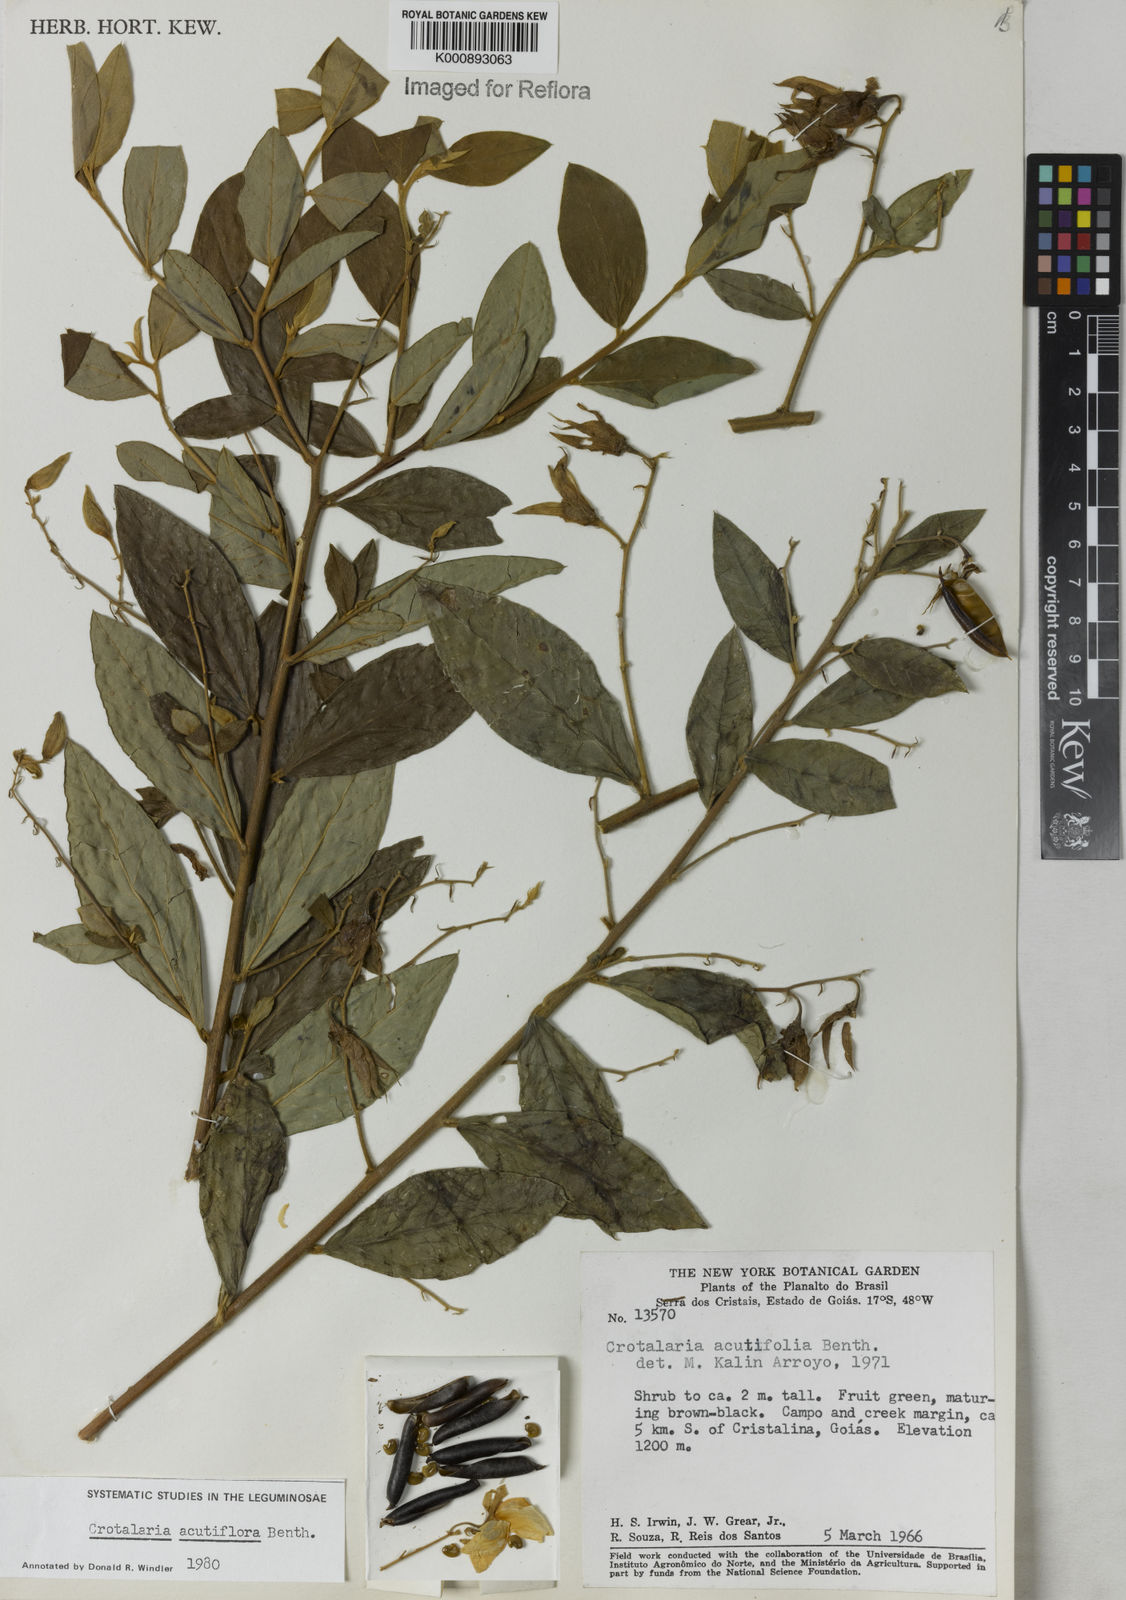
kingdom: Plantae
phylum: Tracheophyta
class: Magnoliopsida
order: Fabales
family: Fabaceae
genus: Crotalaria
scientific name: Crotalaria grandiflora
